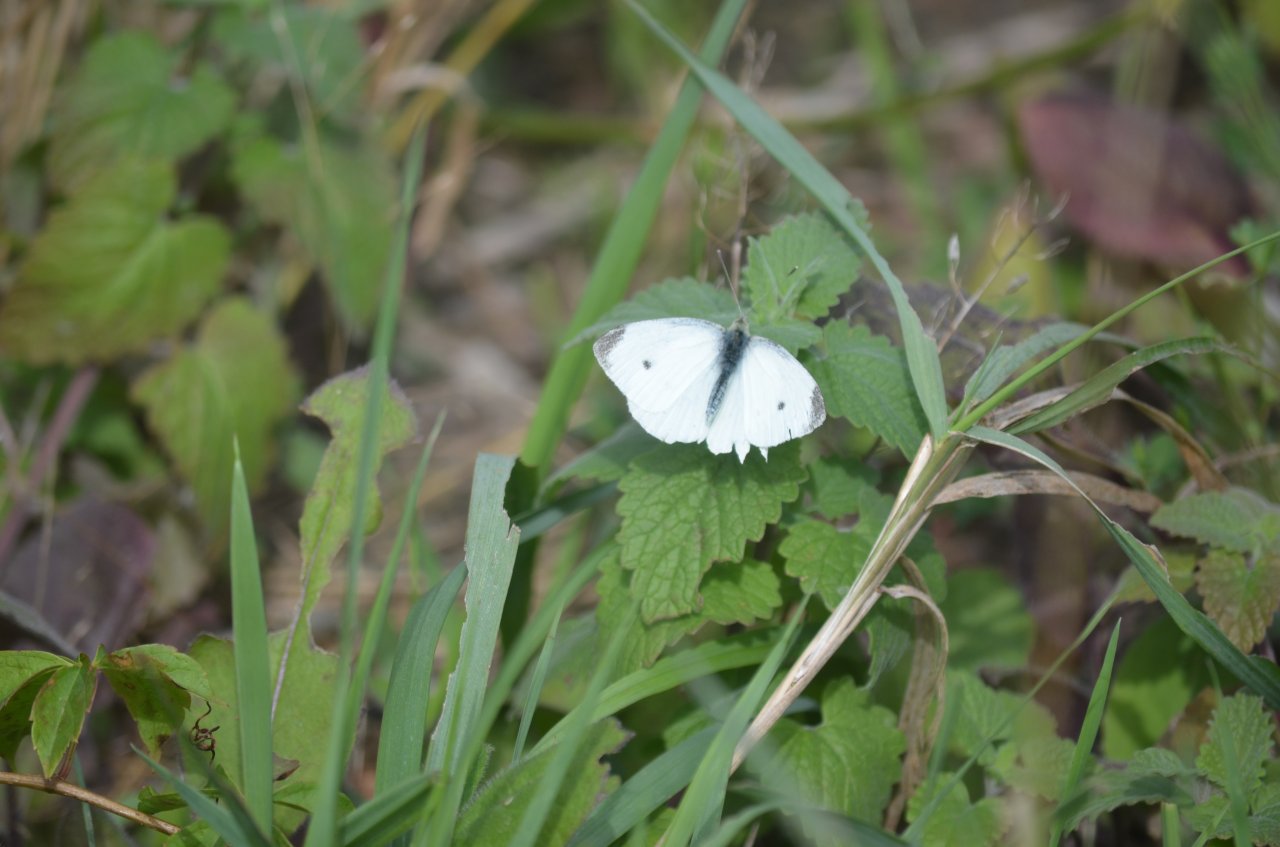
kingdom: Animalia
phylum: Arthropoda
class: Insecta
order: Lepidoptera
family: Pieridae
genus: Pieris
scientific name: Pieris rapae
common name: Cabbage White
